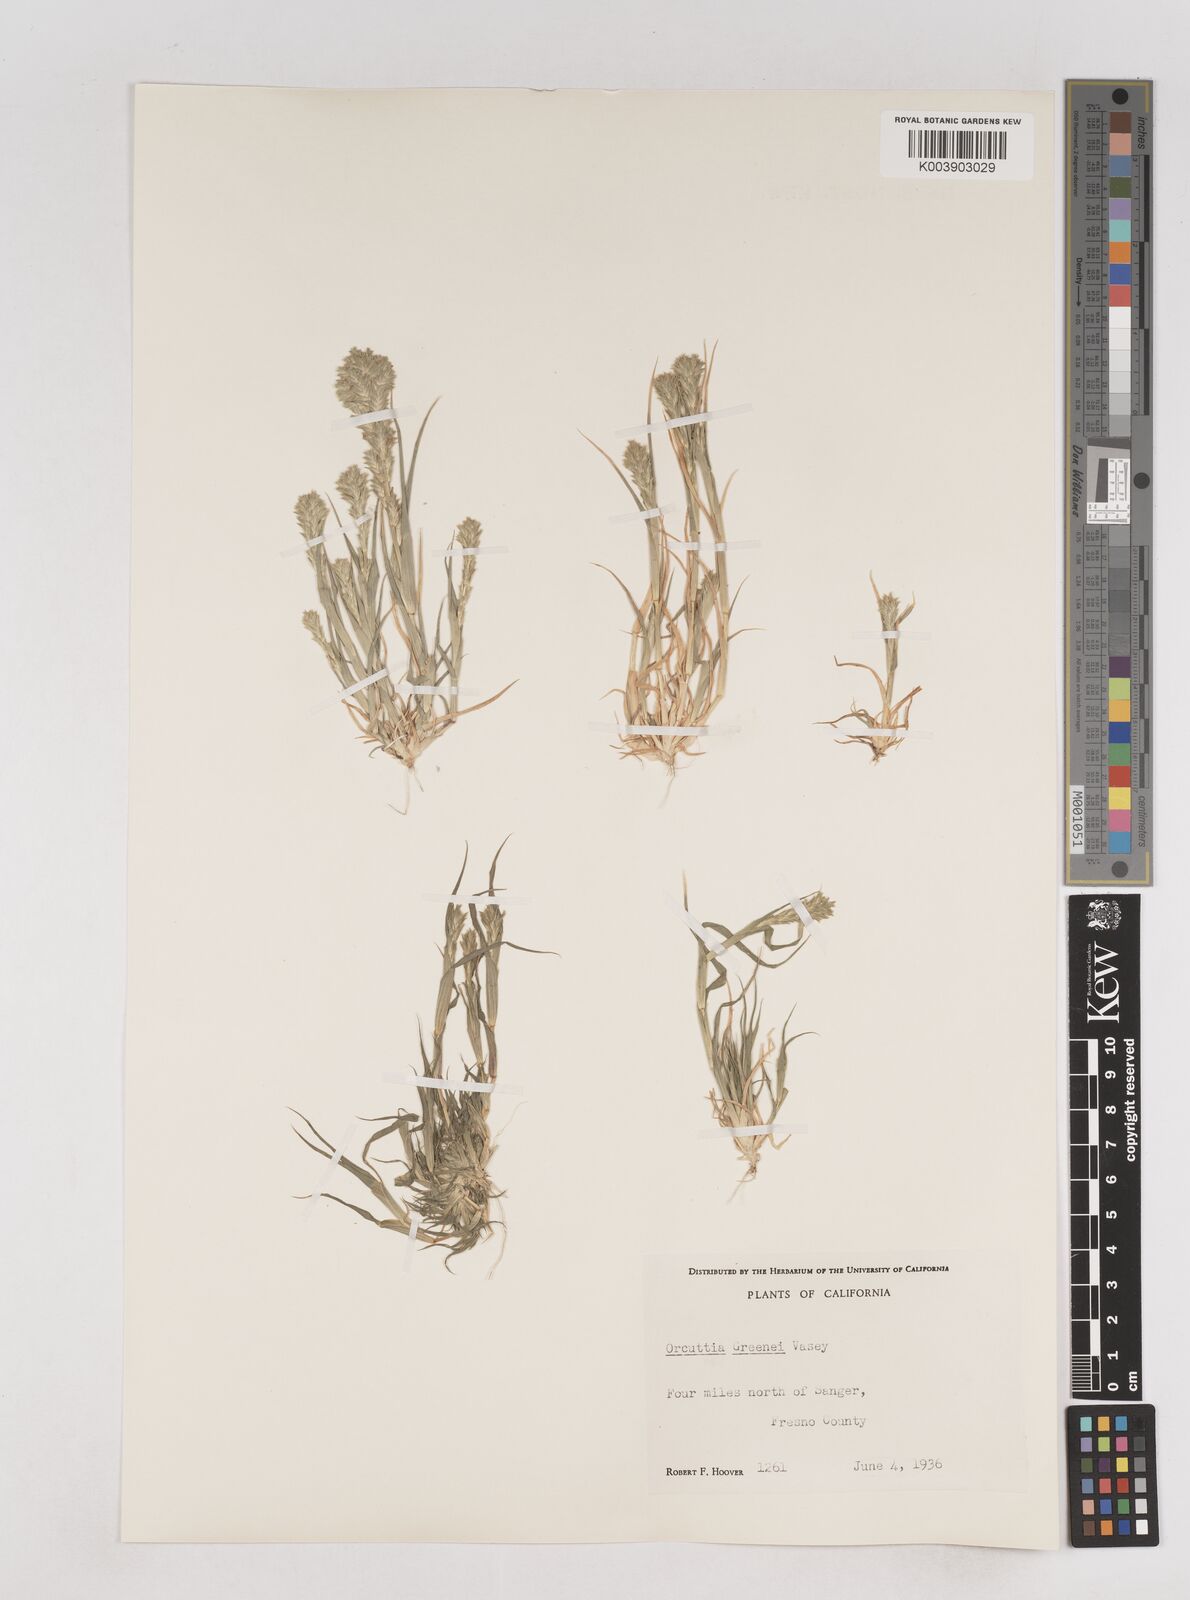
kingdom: Plantae
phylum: Tracheophyta
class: Liliopsida
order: Poales
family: Poaceae
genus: Tuctoria
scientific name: Tuctoria greenei
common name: Awnless spiral grass
